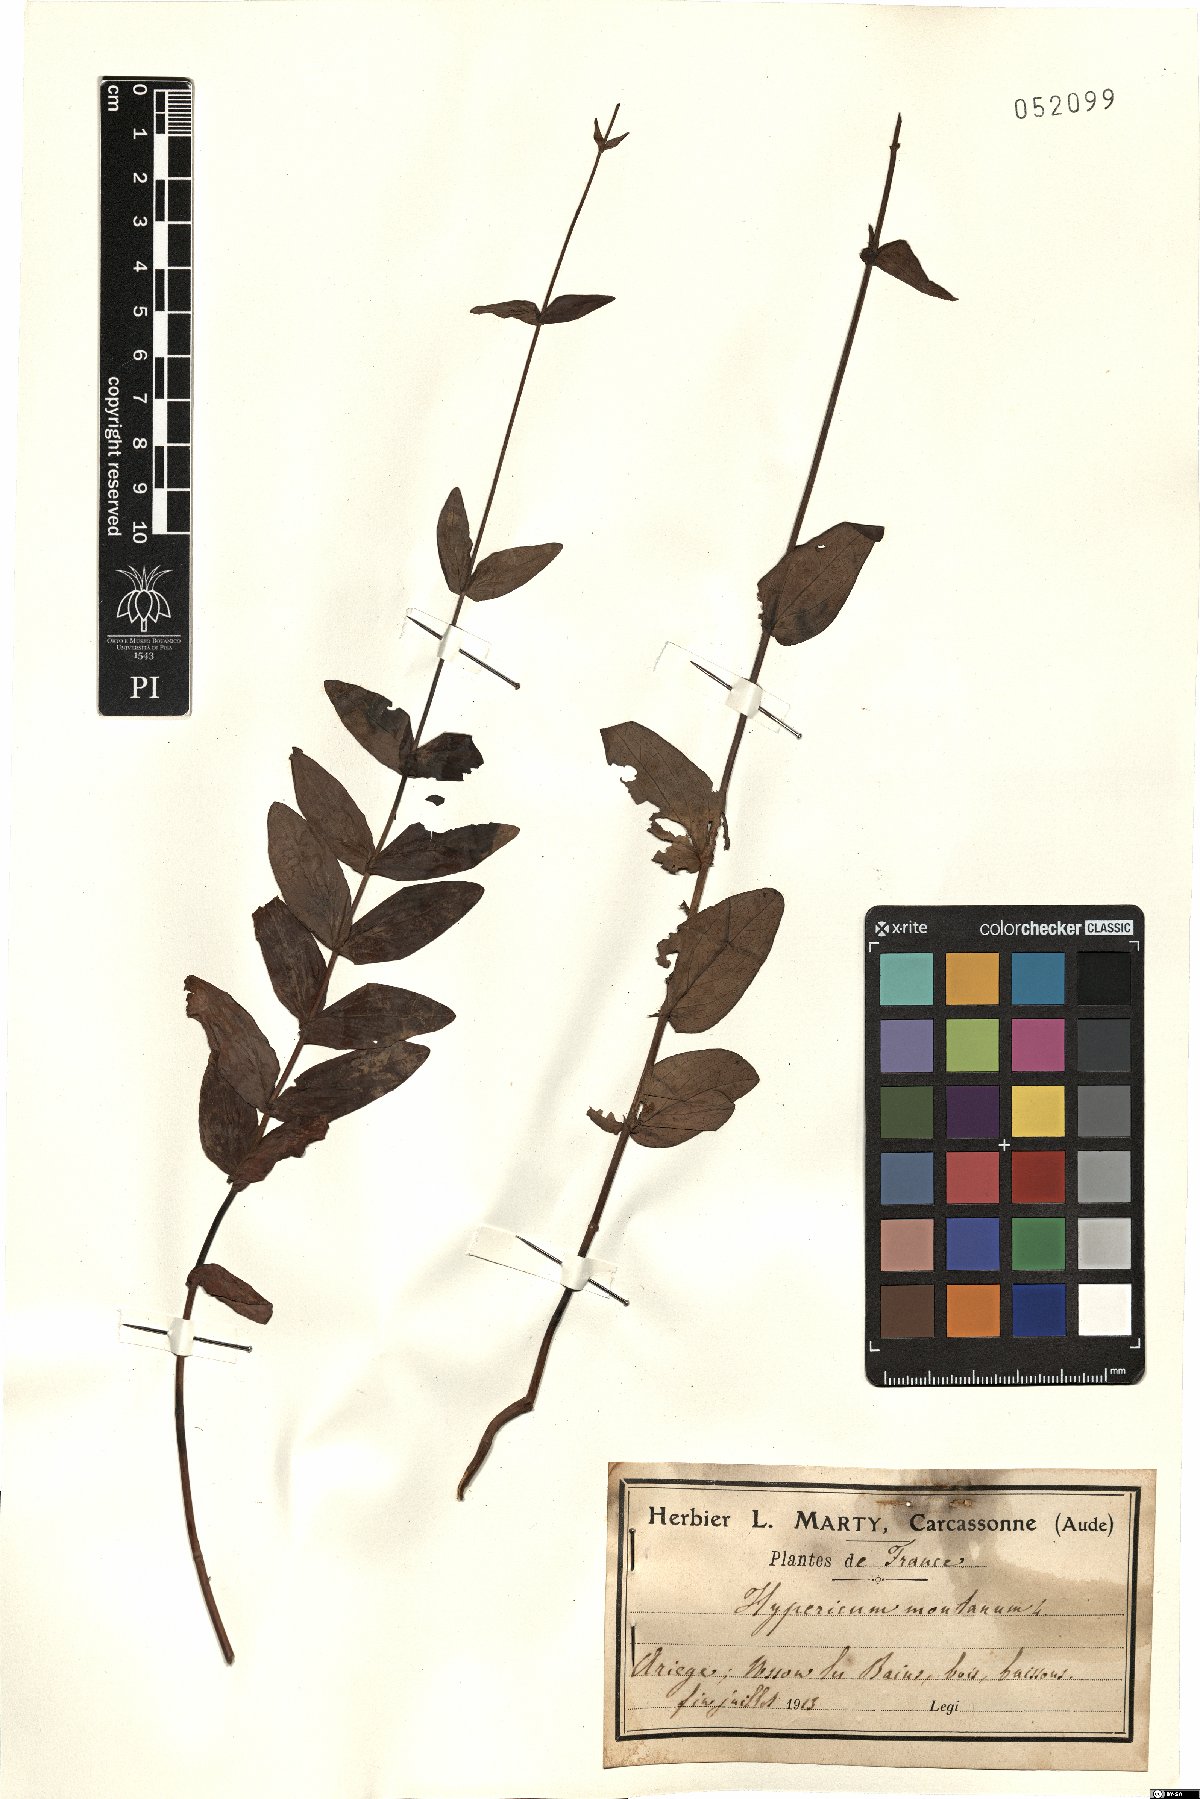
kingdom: Plantae
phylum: Tracheophyta
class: Magnoliopsida
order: Malpighiales
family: Hypericaceae
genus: Hypericum
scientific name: Hypericum montanum
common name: Pale st. john's-wort
